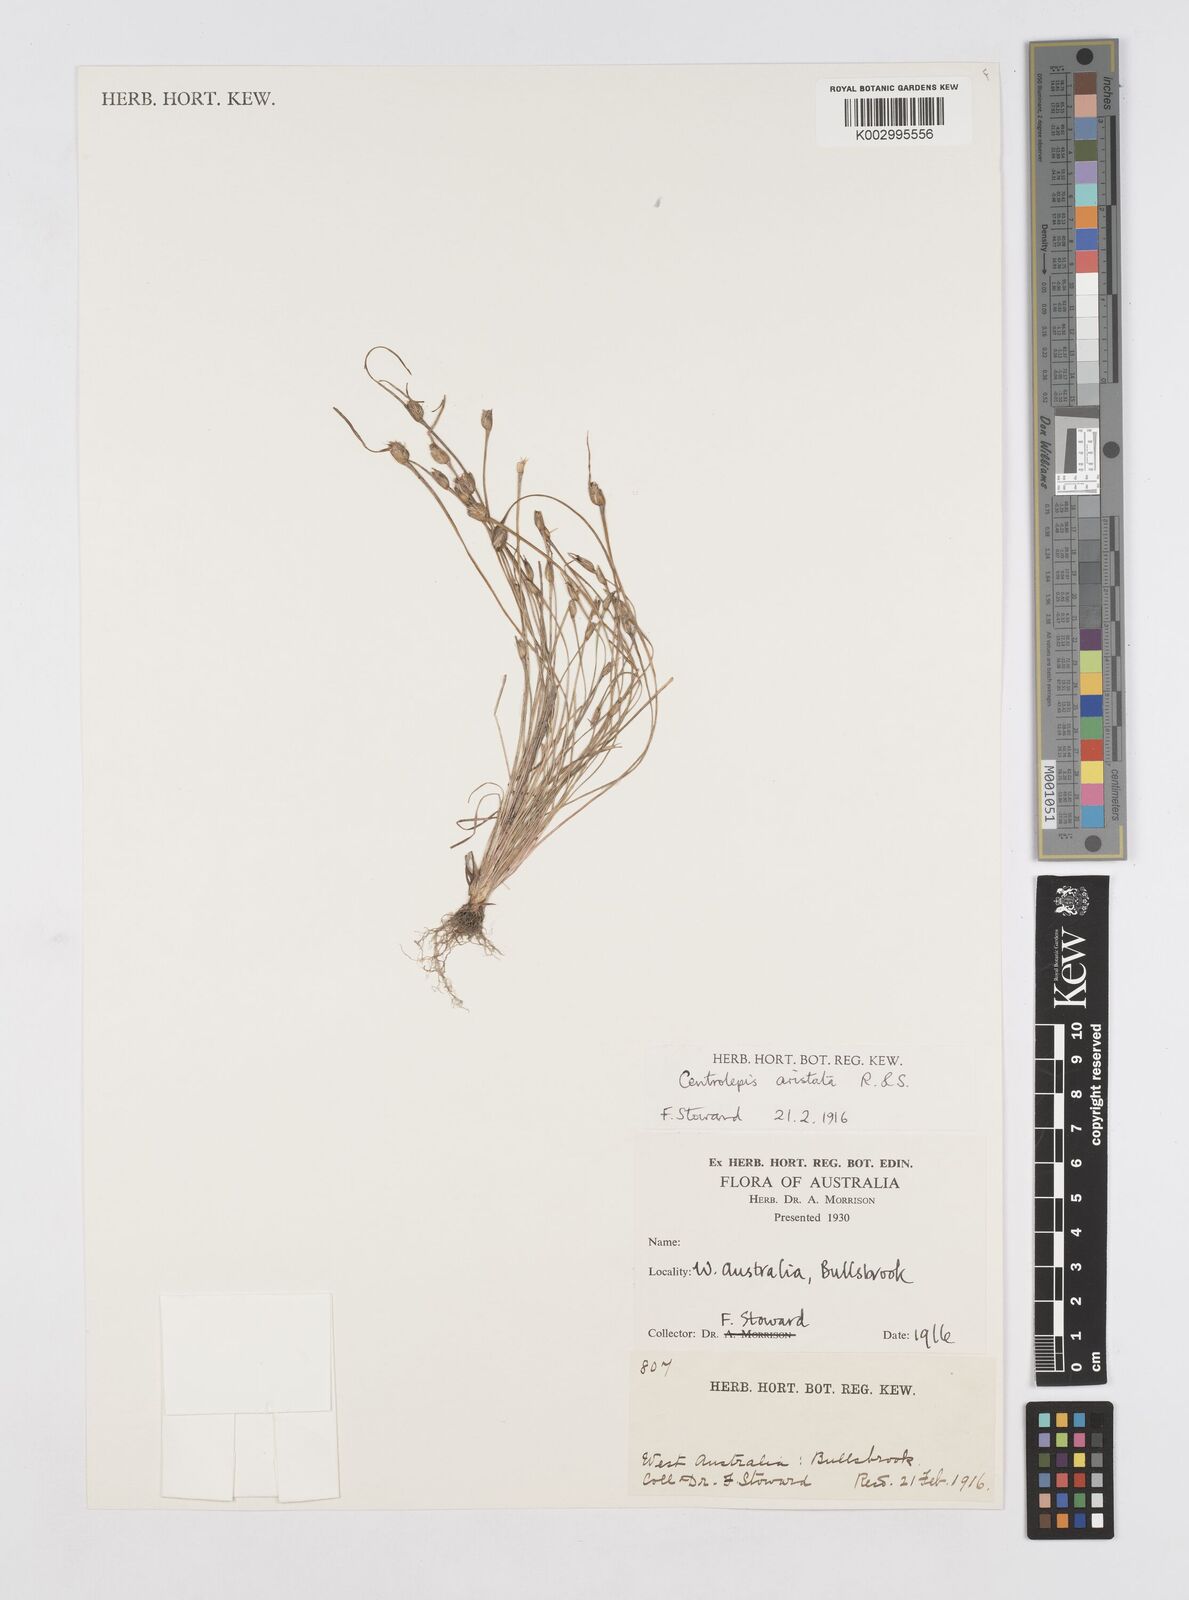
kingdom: Plantae
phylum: Tracheophyta
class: Liliopsida
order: Poales
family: Restionaceae
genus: Centrolepis
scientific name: Centrolepis aristata
